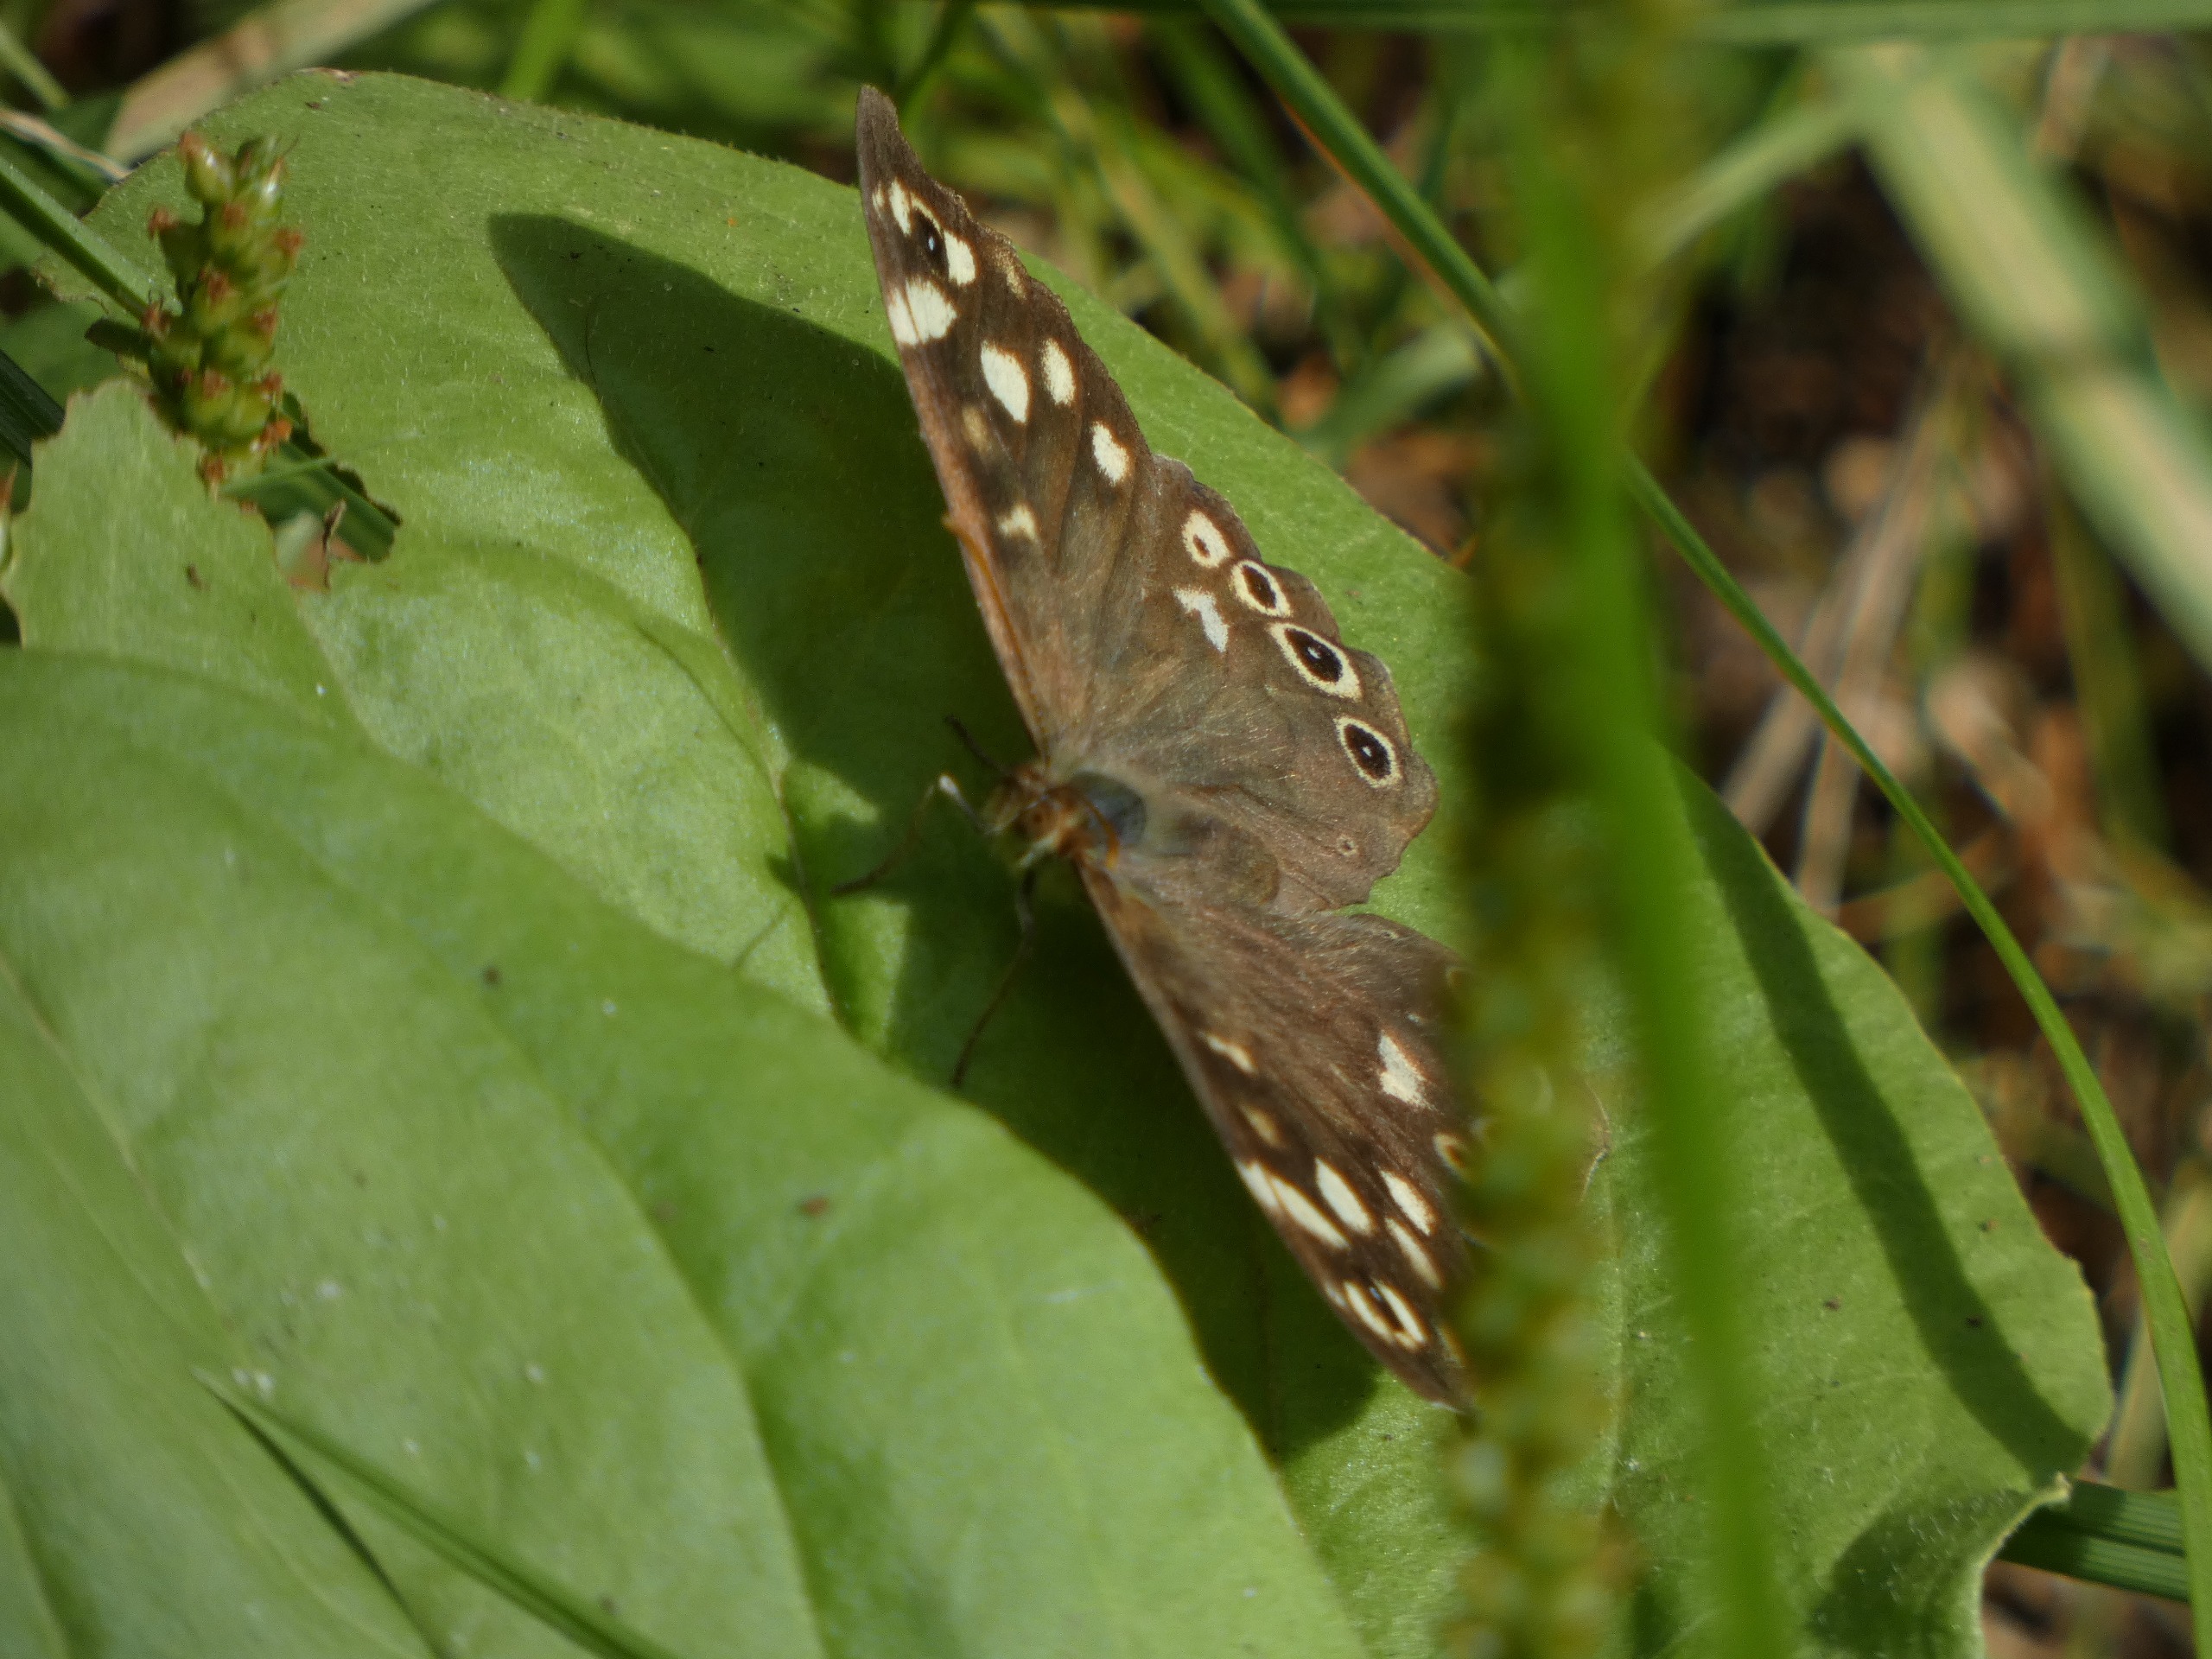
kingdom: Animalia
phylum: Arthropoda
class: Insecta
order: Lepidoptera
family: Nymphalidae
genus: Pararge
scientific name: Pararge aegeria
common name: Skovrandøje
